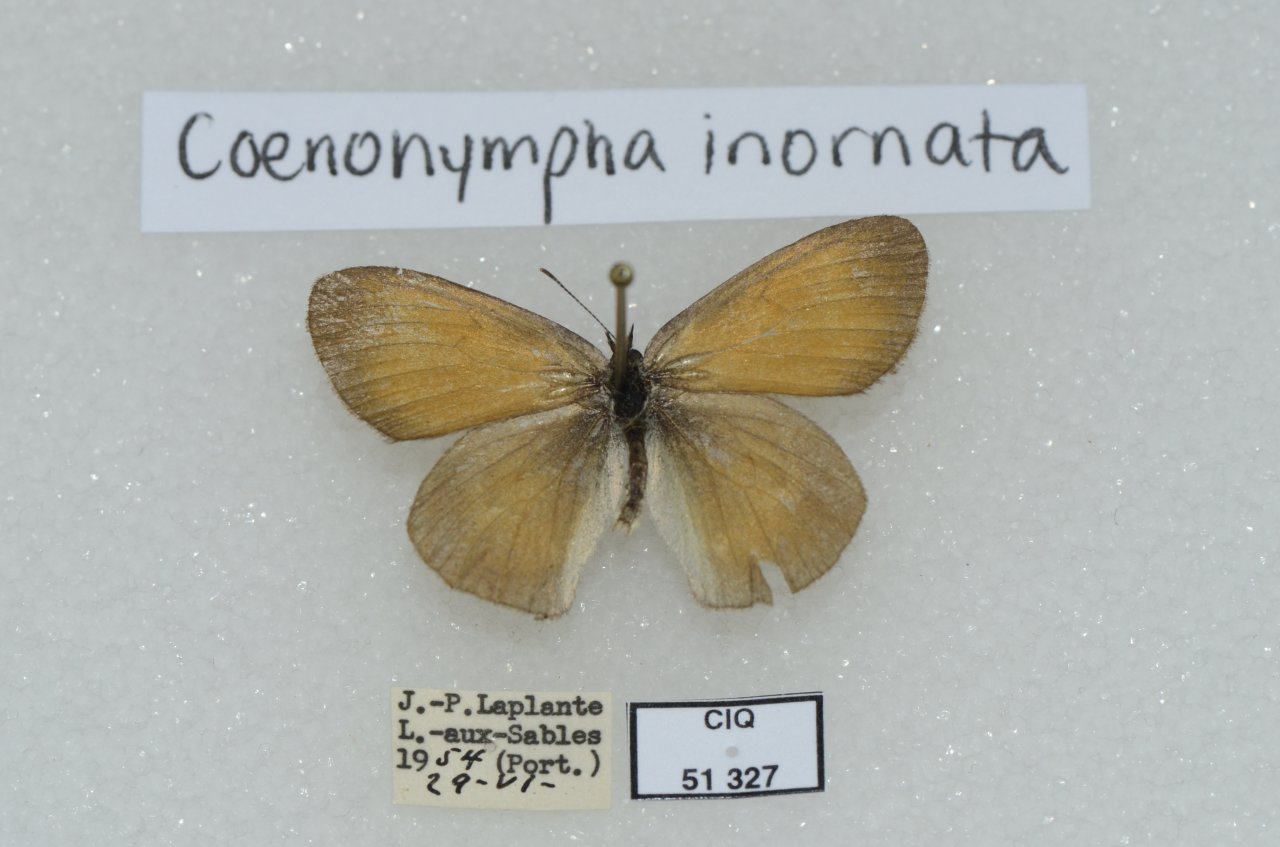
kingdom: Animalia
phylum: Arthropoda
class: Insecta
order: Lepidoptera
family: Nymphalidae
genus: Coenonympha
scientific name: Coenonympha tullia
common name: Large Heath
